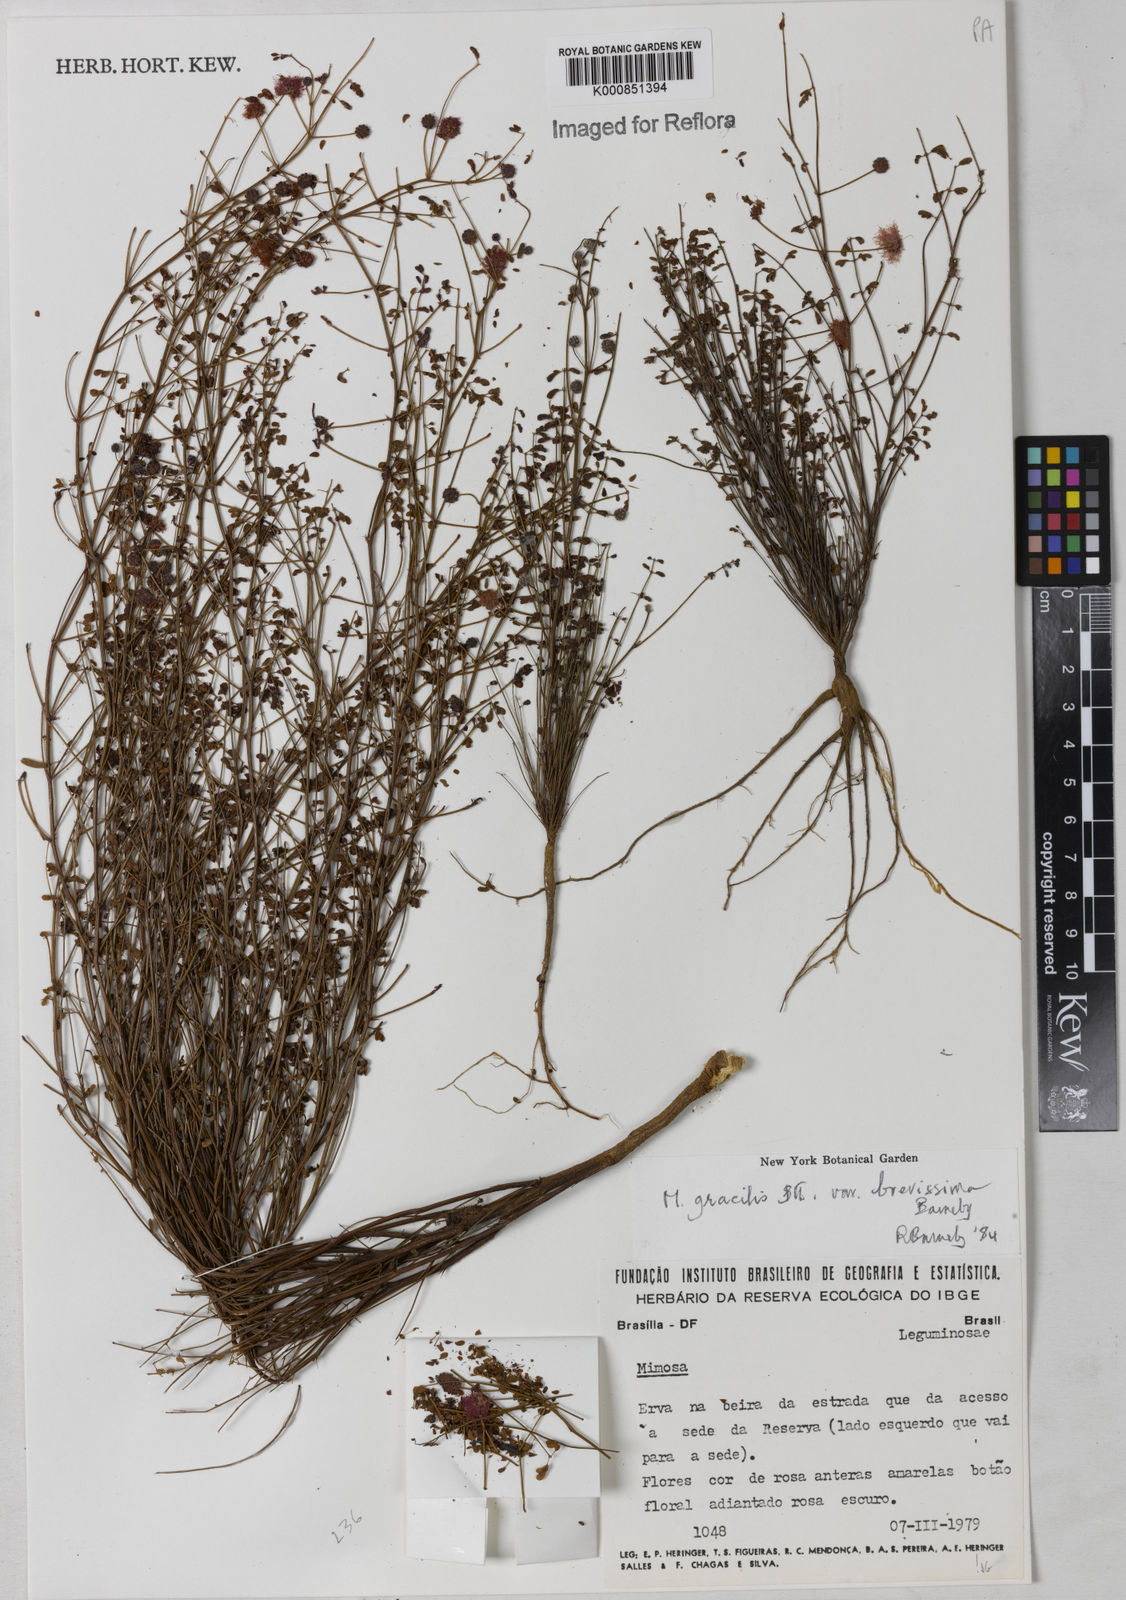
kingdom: Plantae
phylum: Tracheophyta
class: Magnoliopsida
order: Fabales
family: Fabaceae
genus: Mimosa
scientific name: Mimosa gracilis
